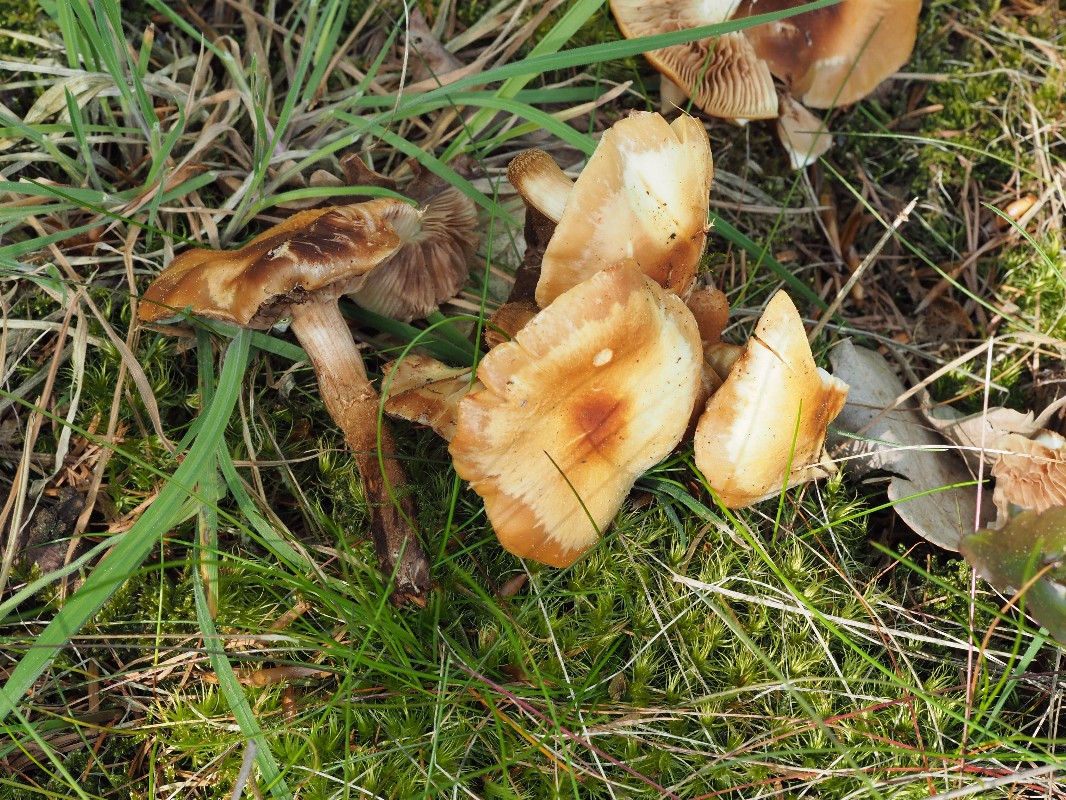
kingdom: Fungi
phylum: Basidiomycota
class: Agaricomycetes
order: Agaricales
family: Strophariaceae
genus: Kuehneromyces
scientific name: Kuehneromyces mutabilis
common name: foranderlig skælhat
